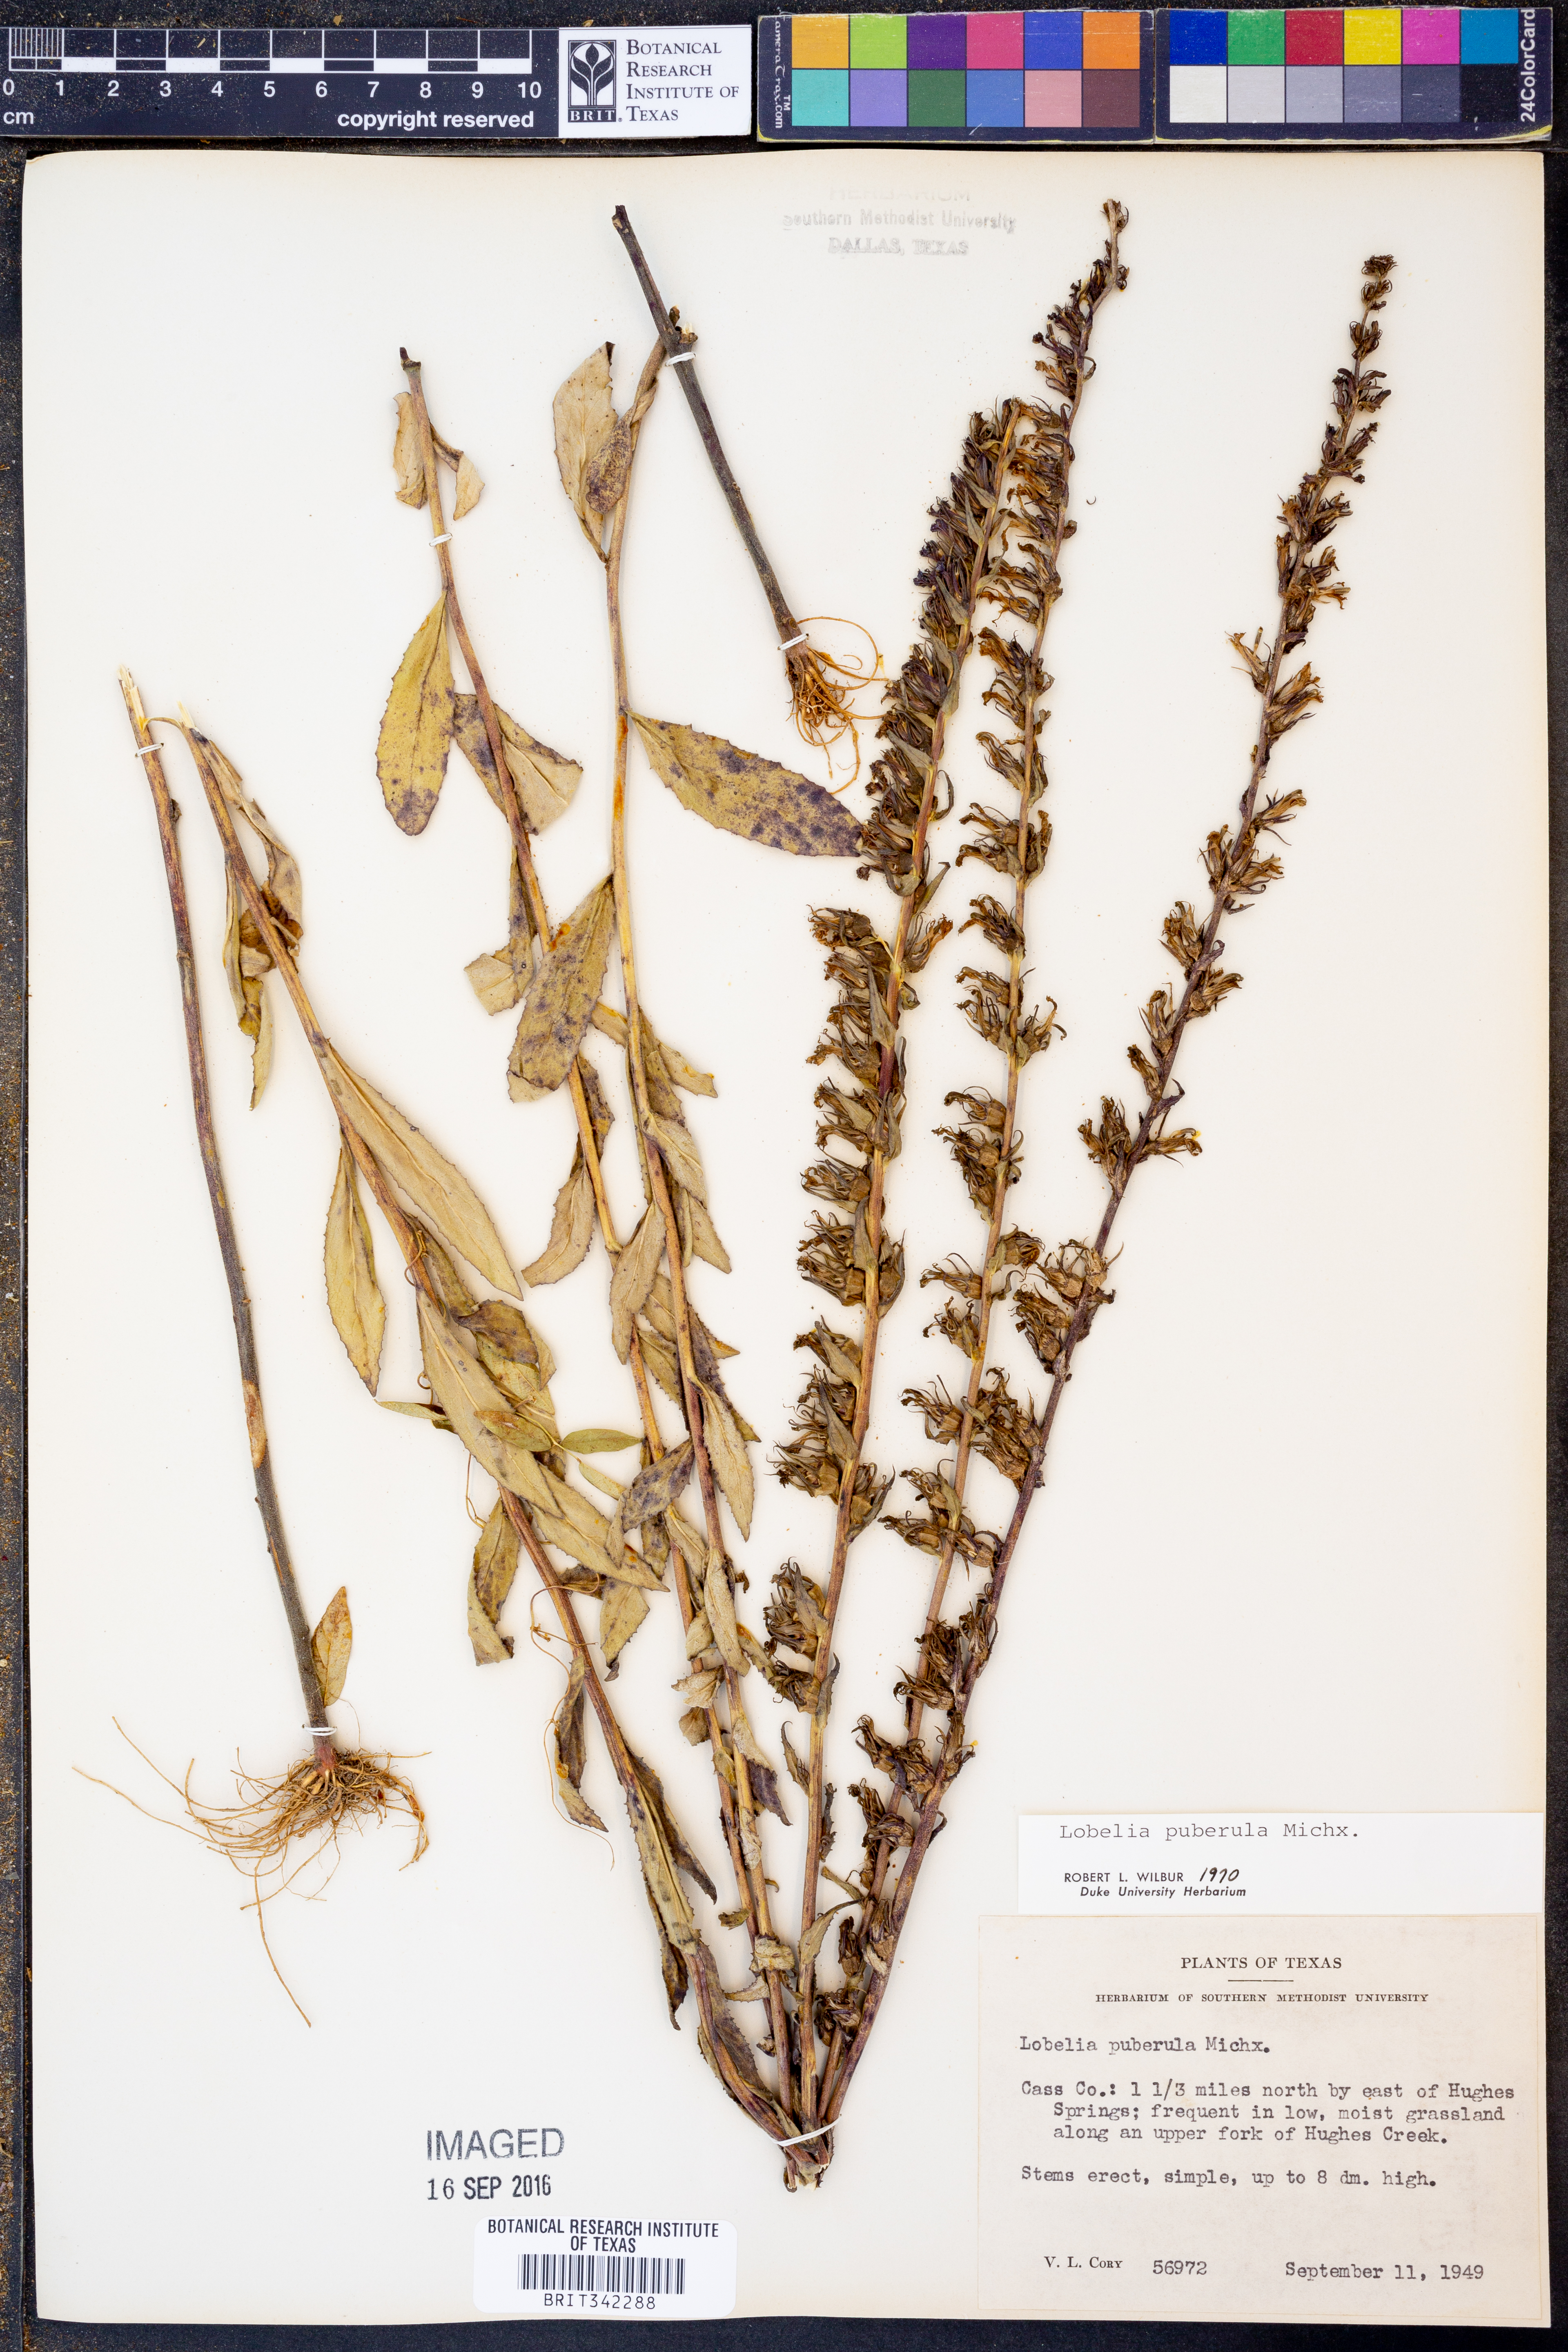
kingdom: Plantae
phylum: Tracheophyta
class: Magnoliopsida
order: Asterales
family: Campanulaceae
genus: Lobelia
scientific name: Lobelia puberula
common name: Purple dewdrop
